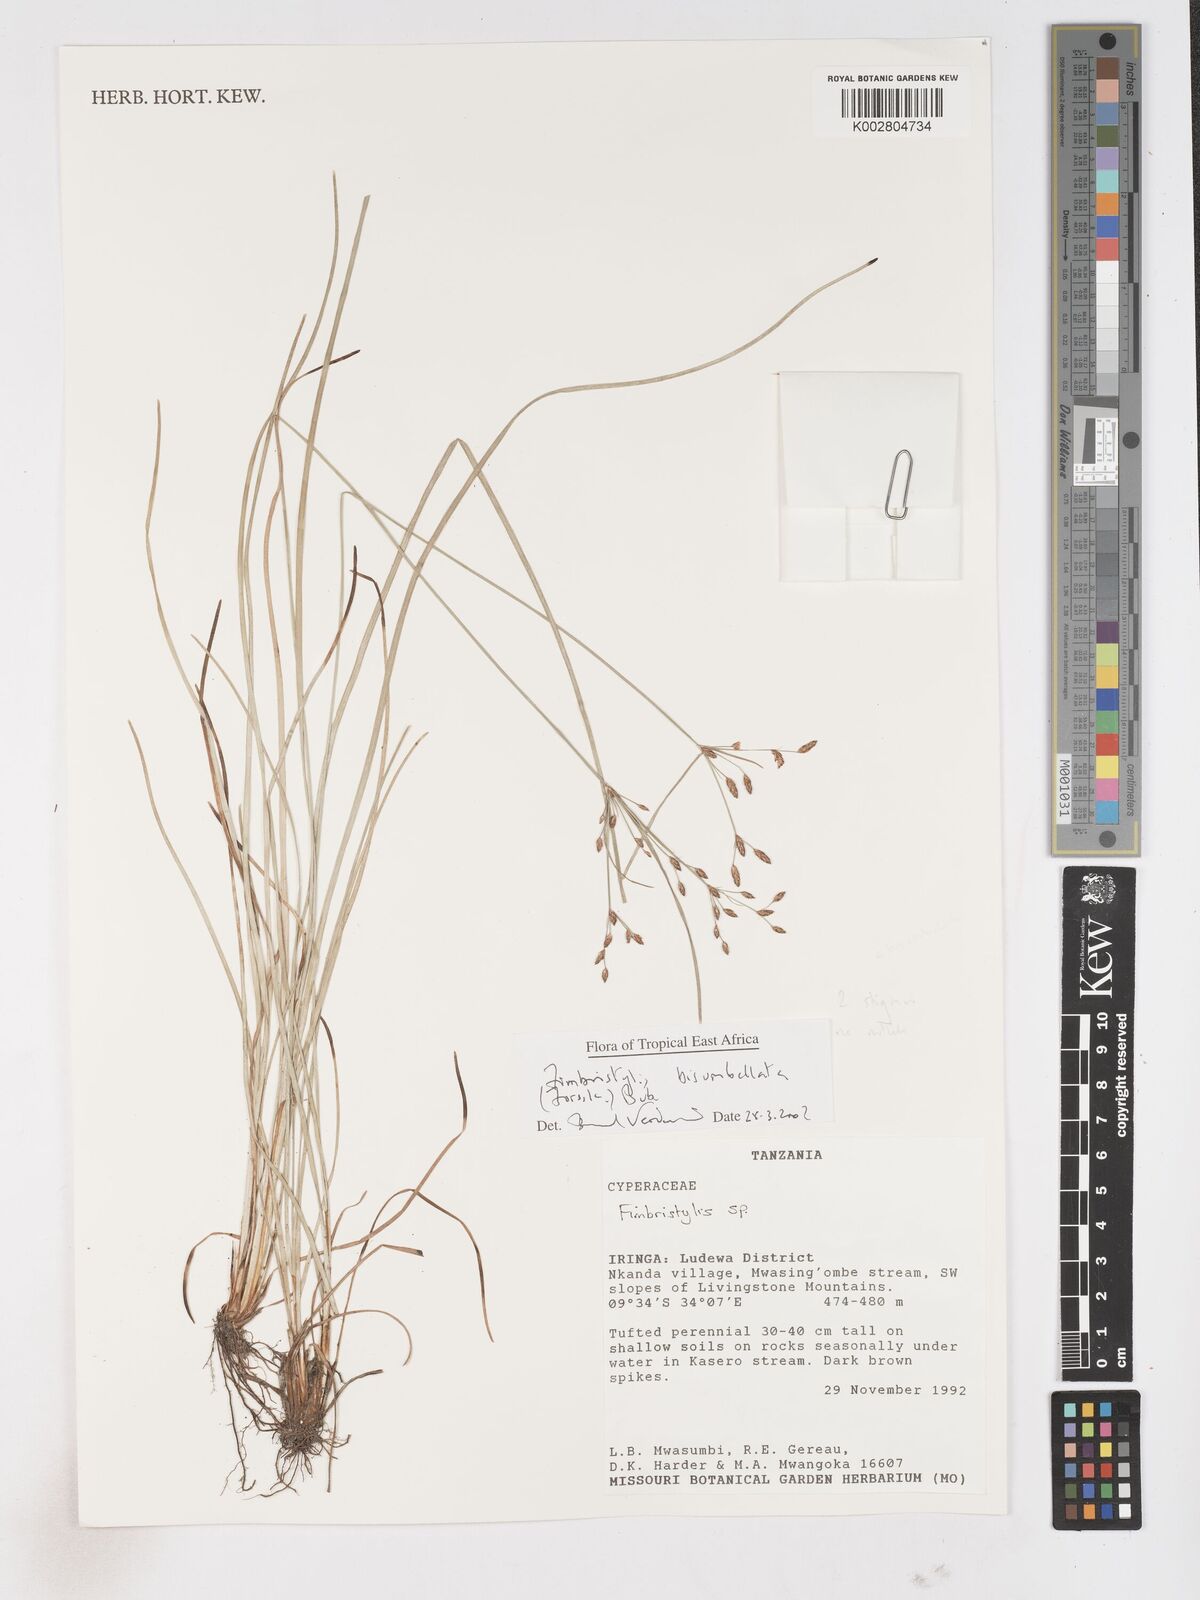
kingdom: Plantae
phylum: Tracheophyta
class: Liliopsida
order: Poales
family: Cyperaceae
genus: Fimbristylis
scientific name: Fimbristylis bisumbellata
